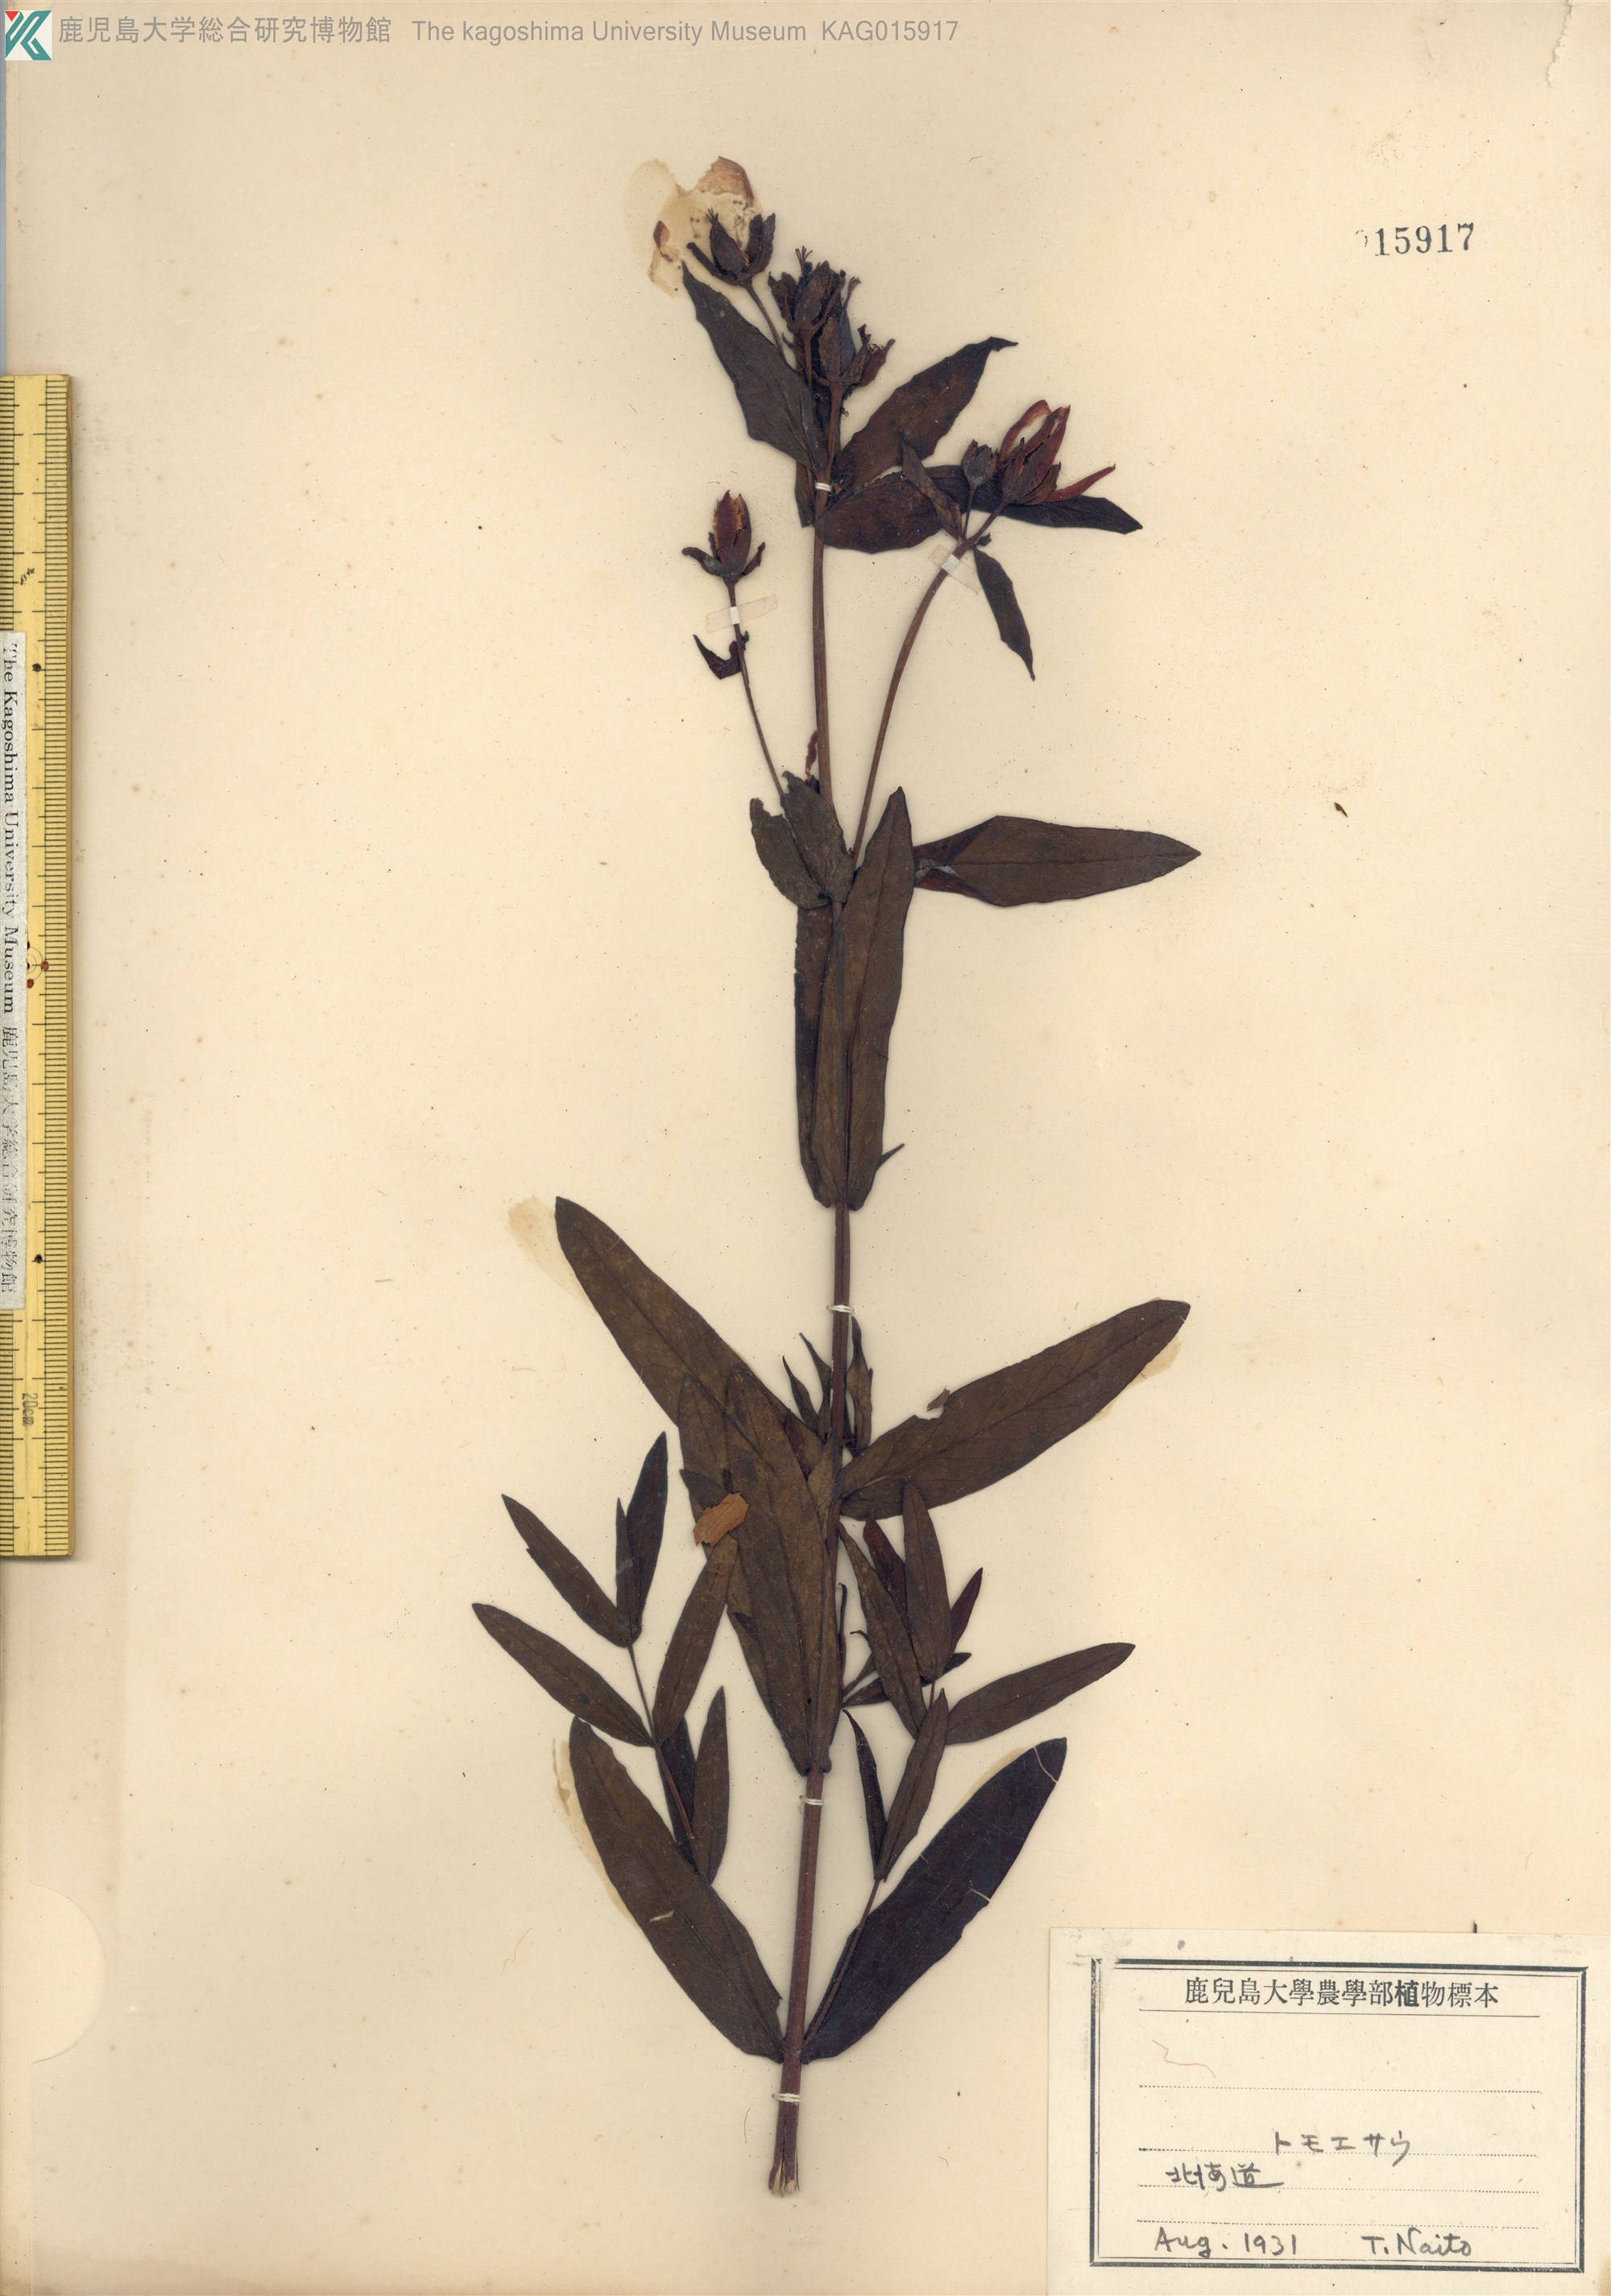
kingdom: Plantae
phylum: Tracheophyta
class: Magnoliopsida
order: Malpighiales
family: Hypericaceae
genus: Hypericum
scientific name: Hypericum ascyron
